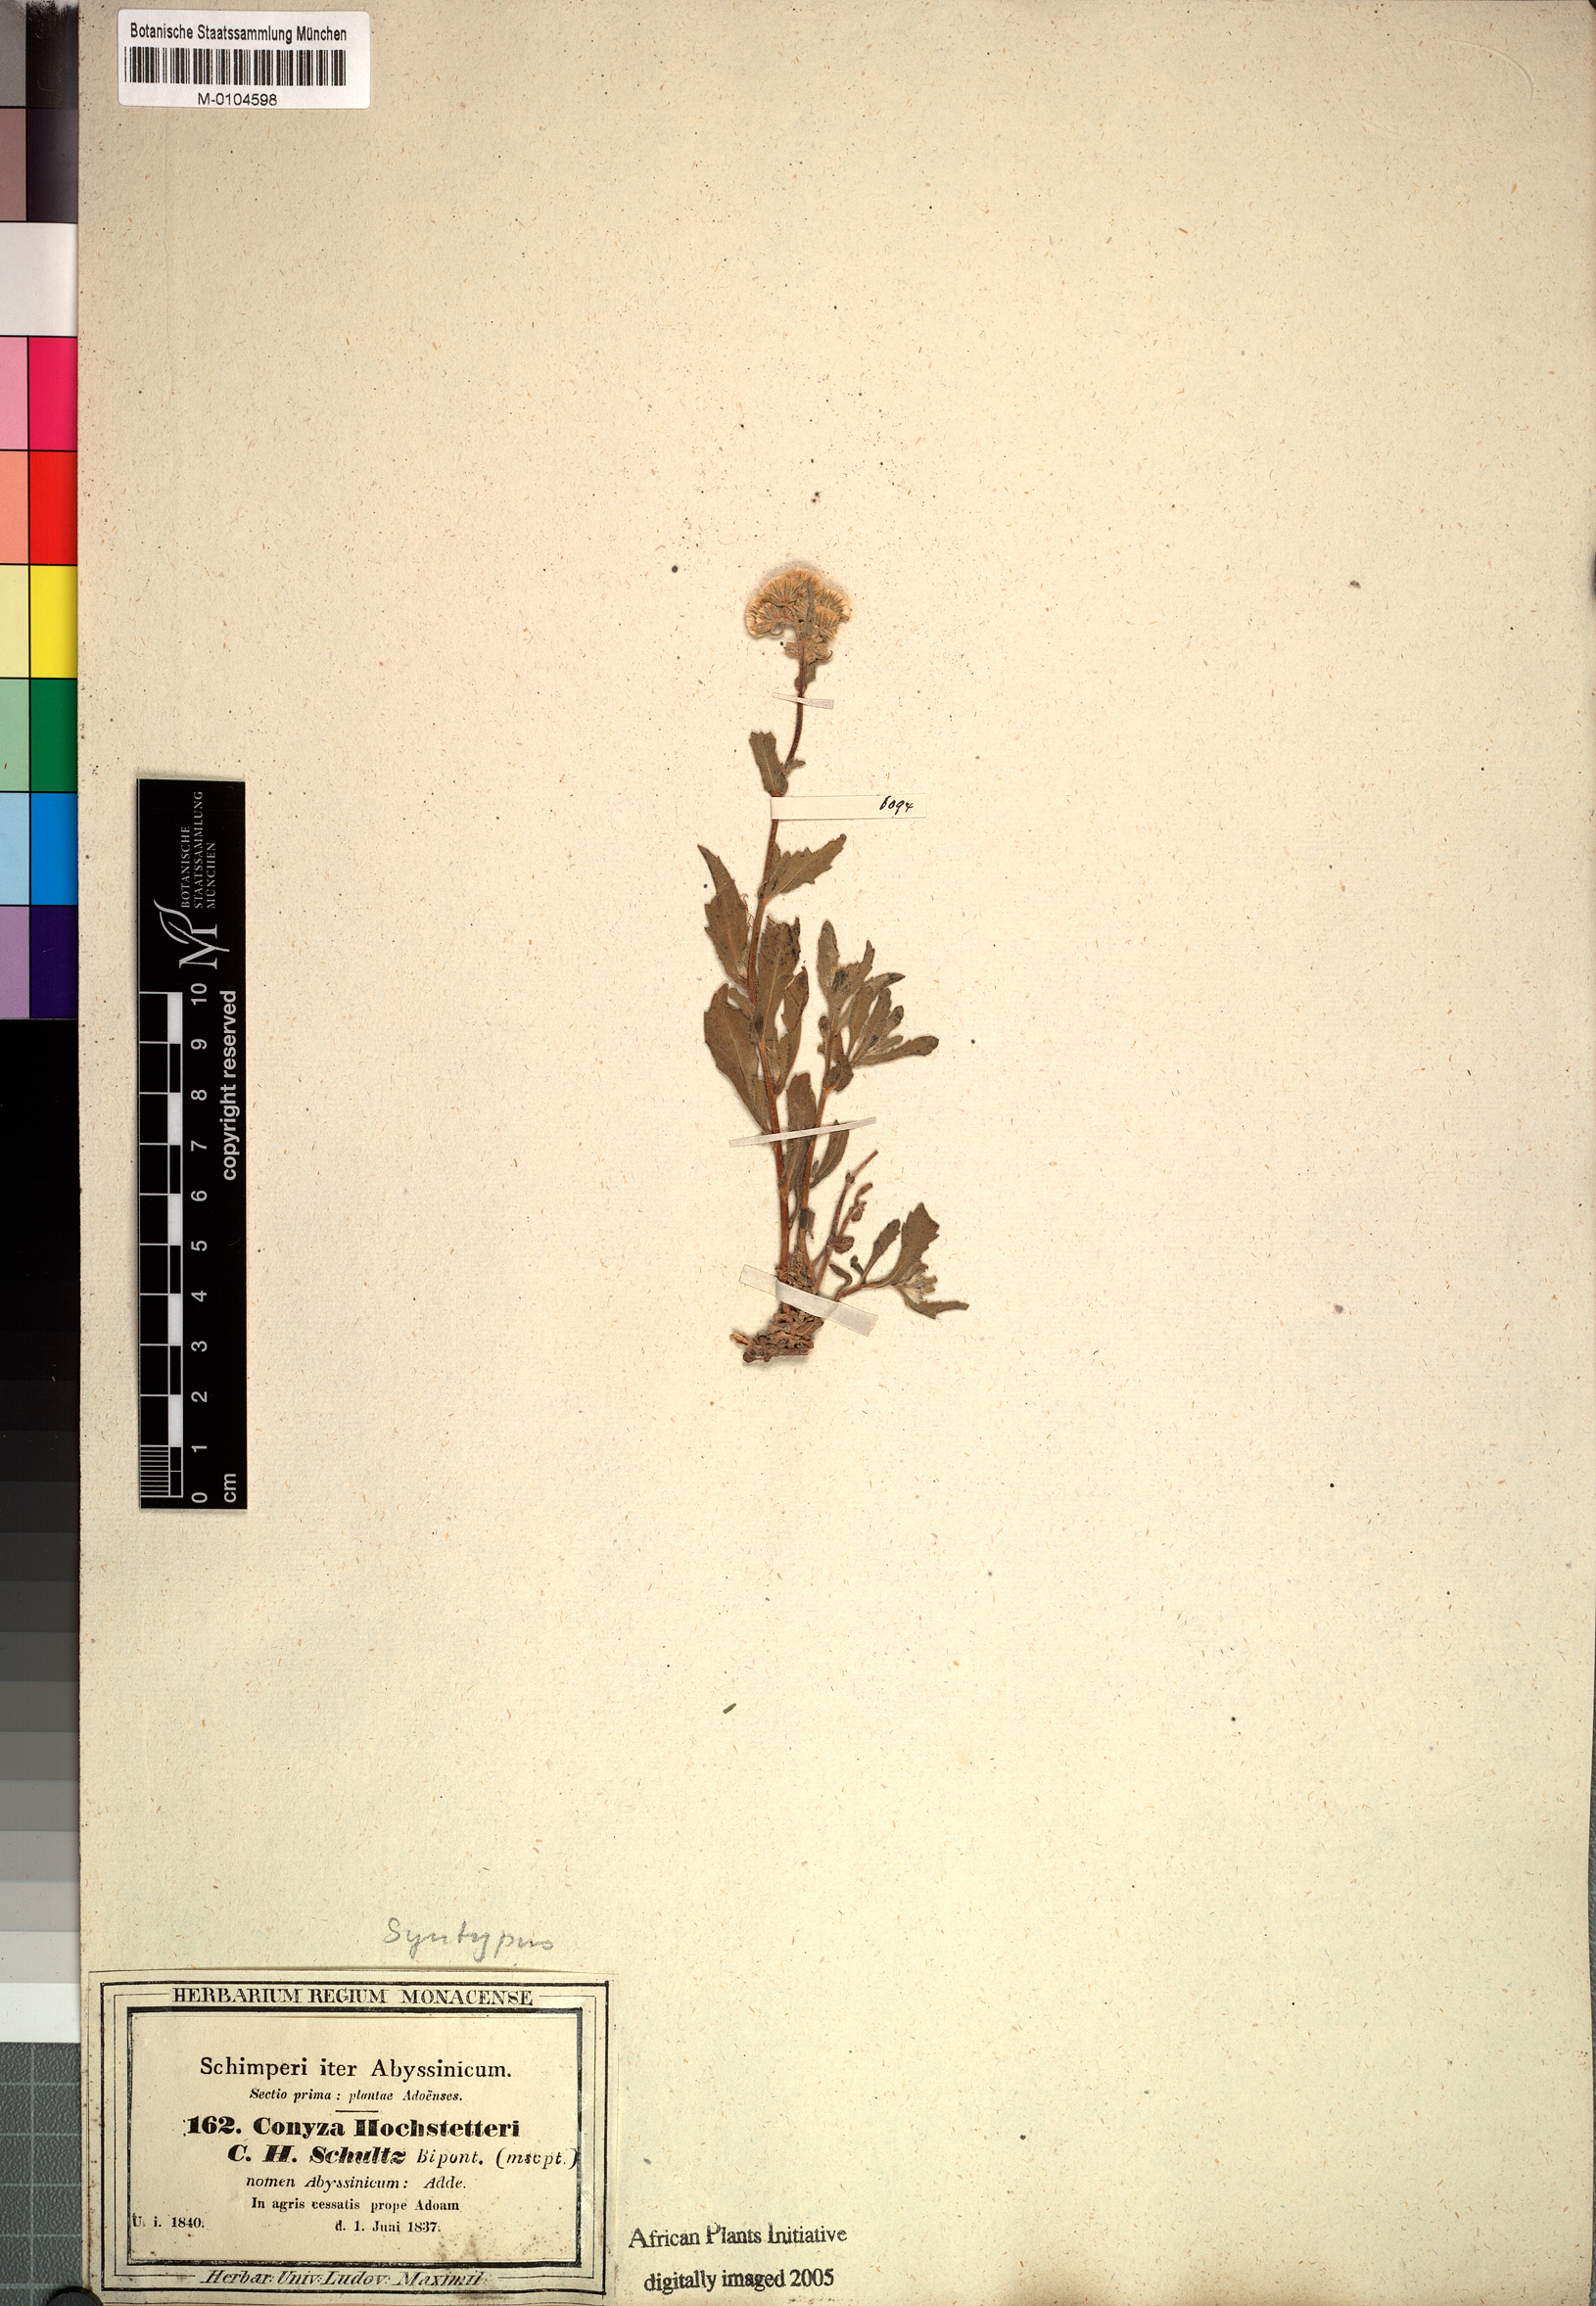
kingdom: Plantae
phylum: Tracheophyta
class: Magnoliopsida
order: Asterales
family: Asteraceae
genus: Eschenbachia
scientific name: Eschenbachia gouanii
